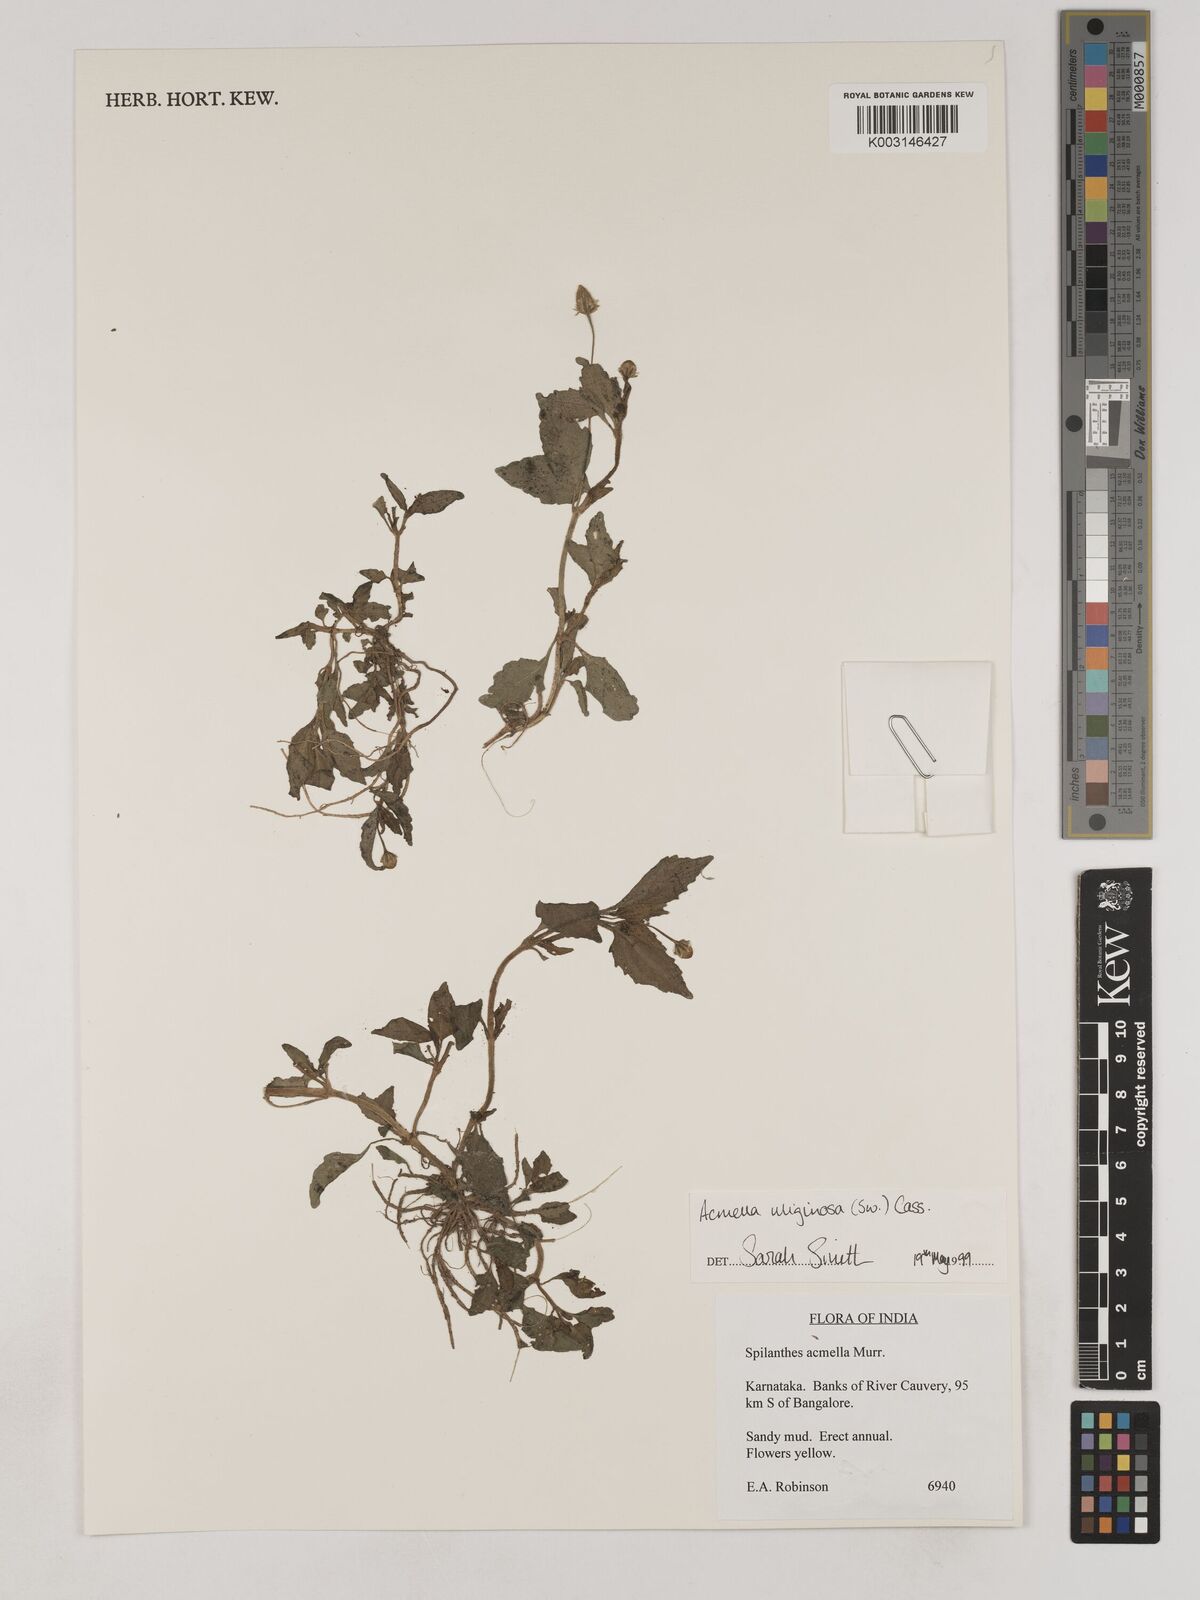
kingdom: Plantae
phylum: Tracheophyta
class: Magnoliopsida
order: Asterales
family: Asteraceae
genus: Acmella
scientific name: Acmella uliginosa
